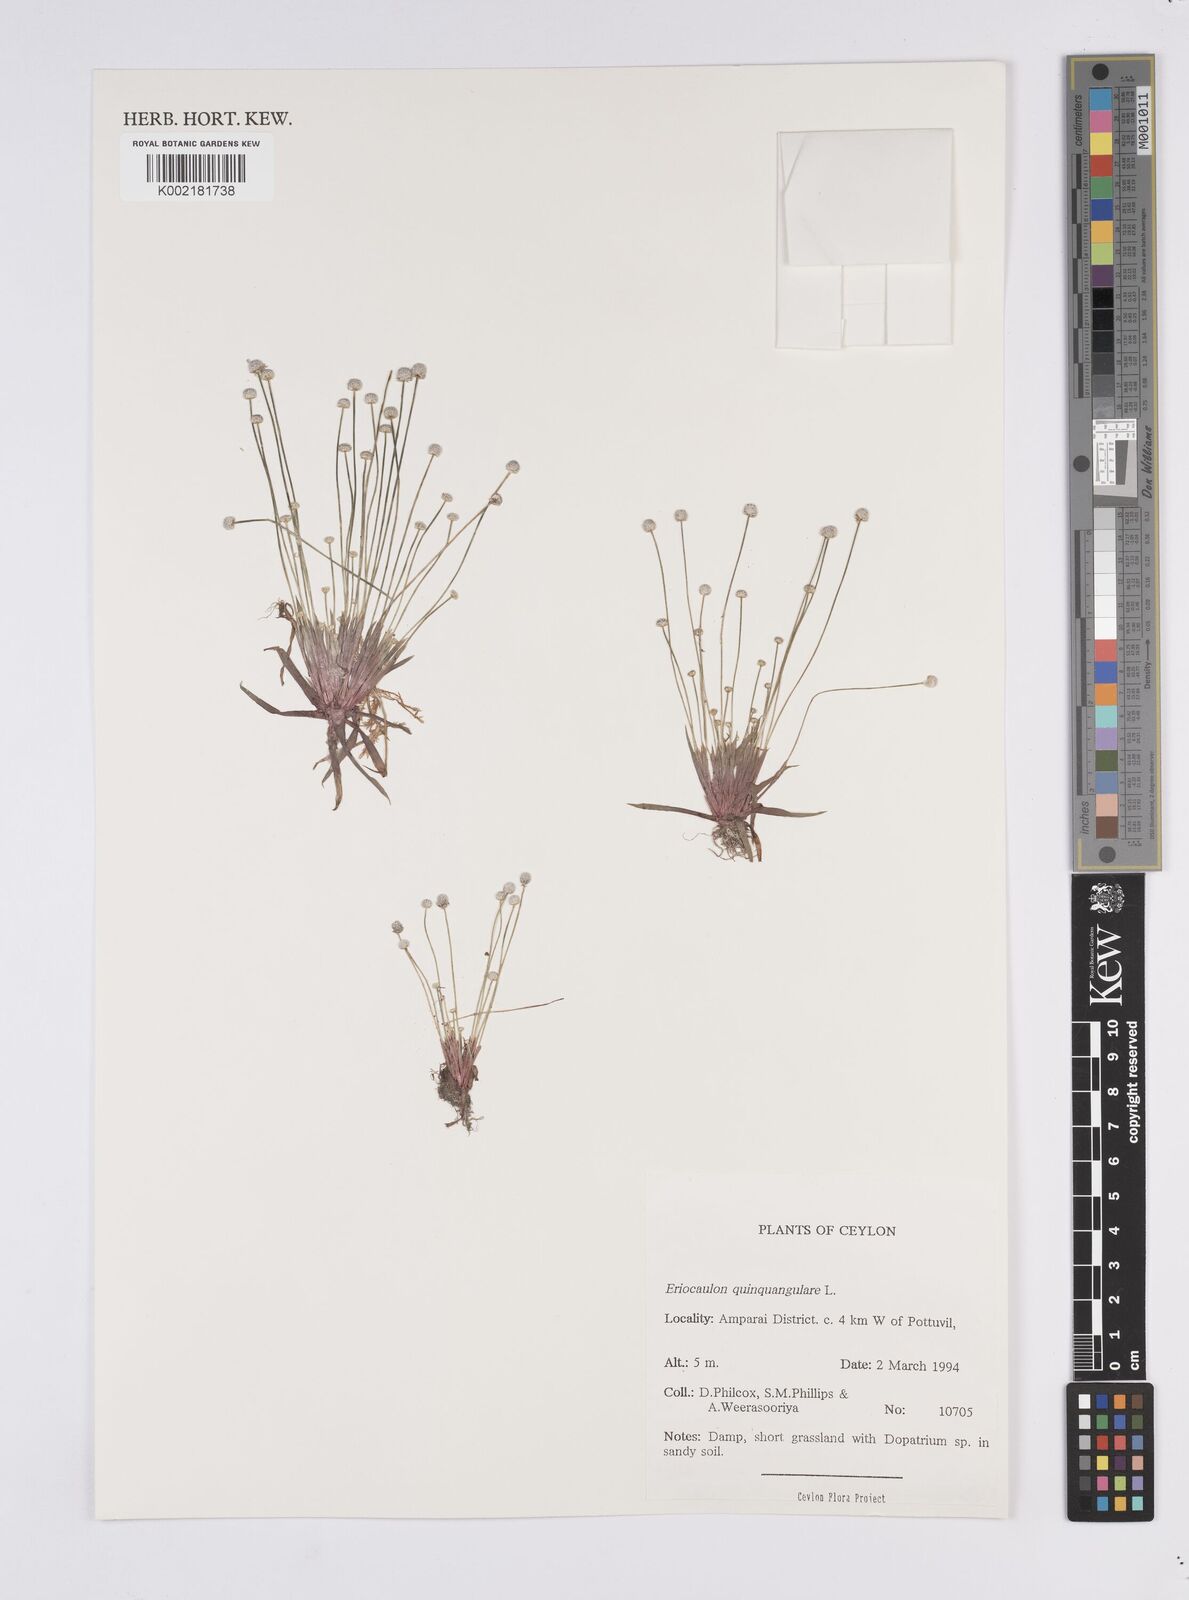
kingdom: Plantae
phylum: Tracheophyta
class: Liliopsida
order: Poales
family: Eriocaulaceae
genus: Eriocaulon
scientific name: Eriocaulon quinquangulare
